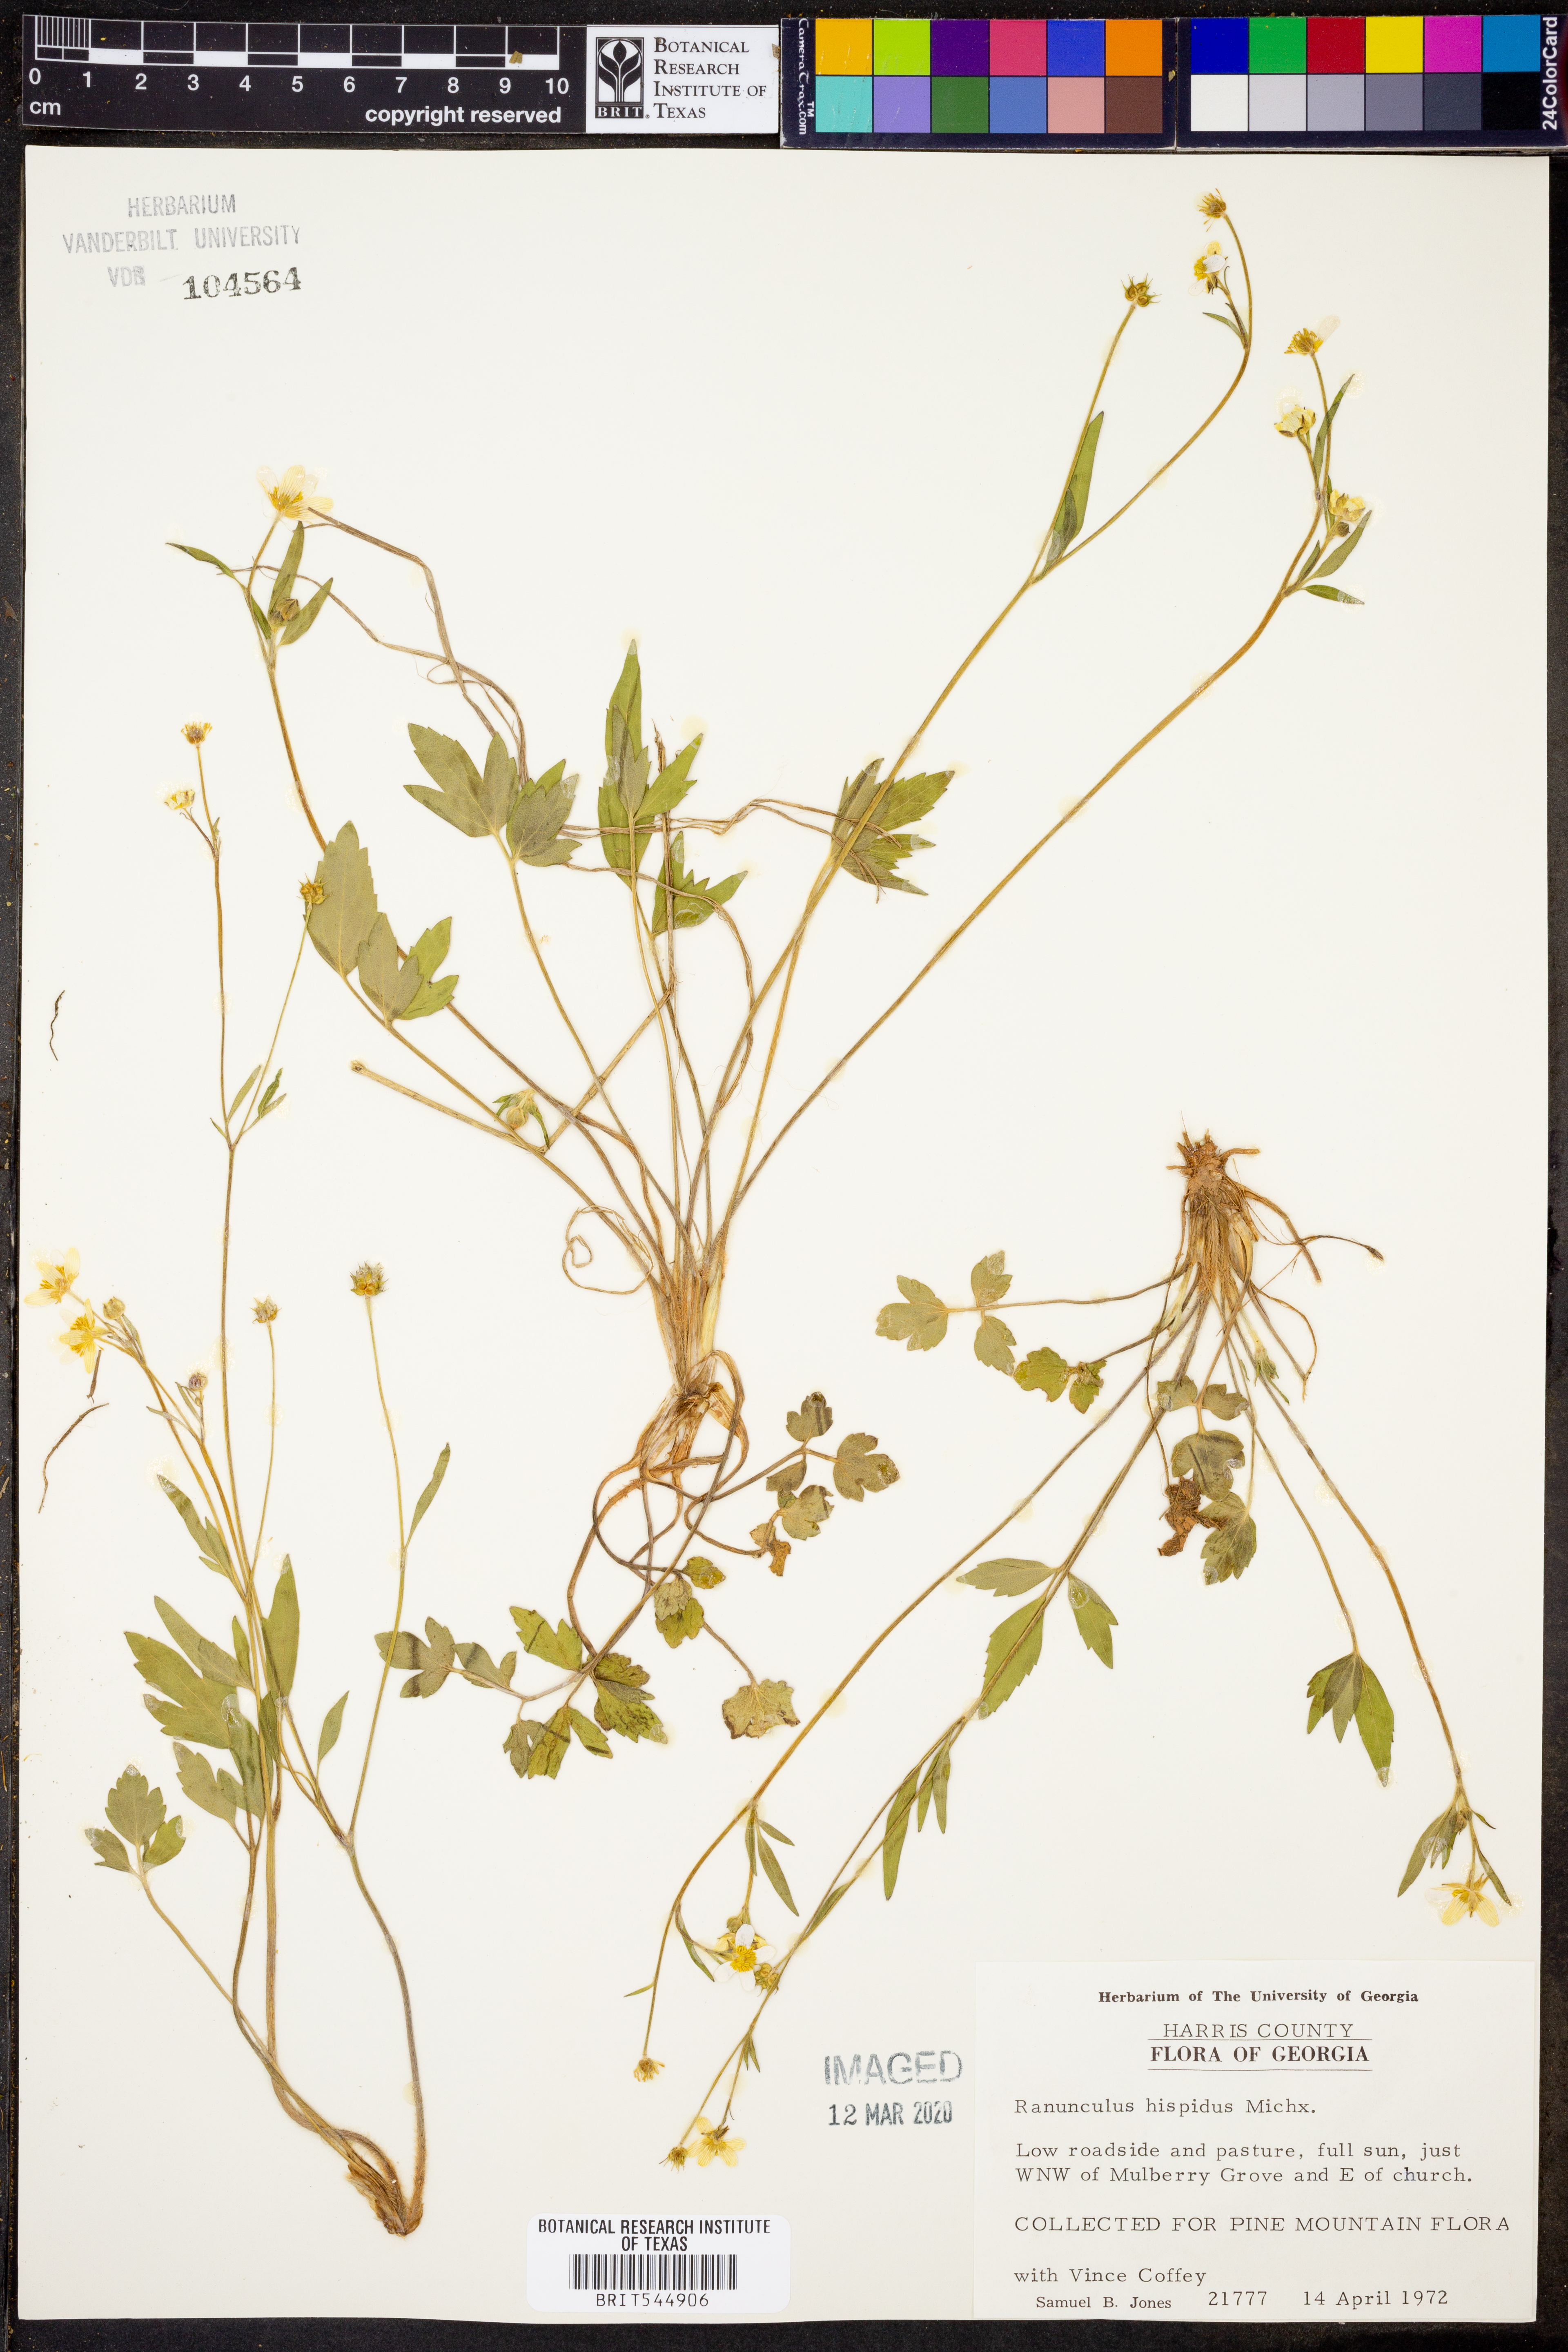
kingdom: Plantae
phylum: Tracheophyta
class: Magnoliopsida
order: Ranunculales
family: Ranunculaceae
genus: Ranunculus
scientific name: Ranunculus hispidus
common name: Bristly buttercup
